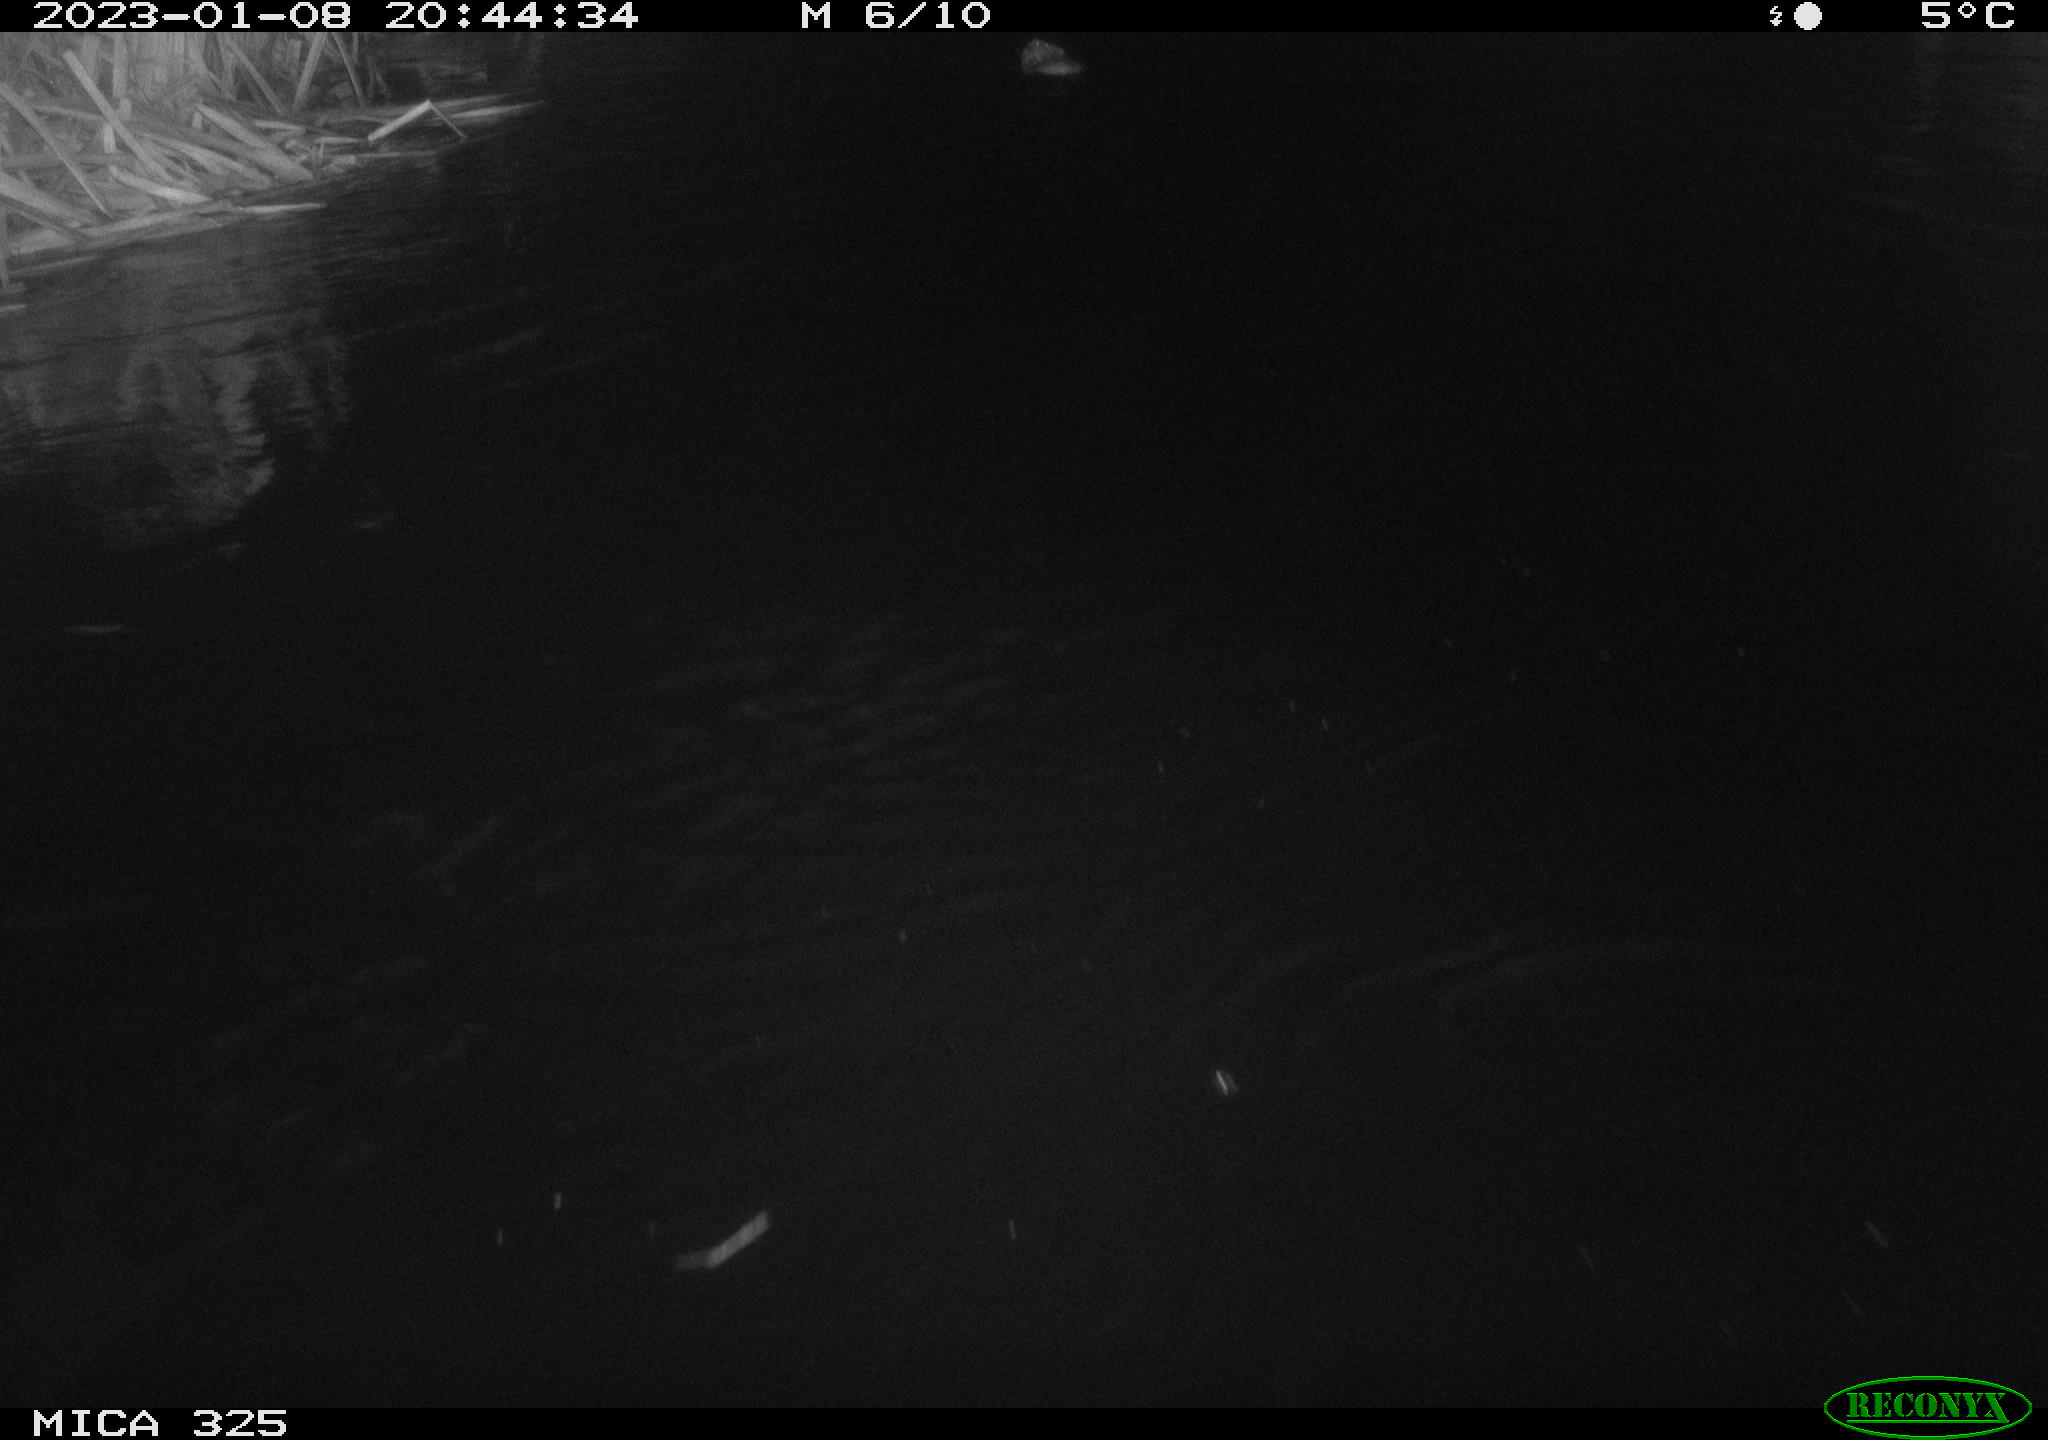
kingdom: Animalia
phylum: Chordata
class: Mammalia
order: Rodentia
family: Cricetidae
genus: Ondatra
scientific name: Ondatra zibethicus
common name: Muskrat
